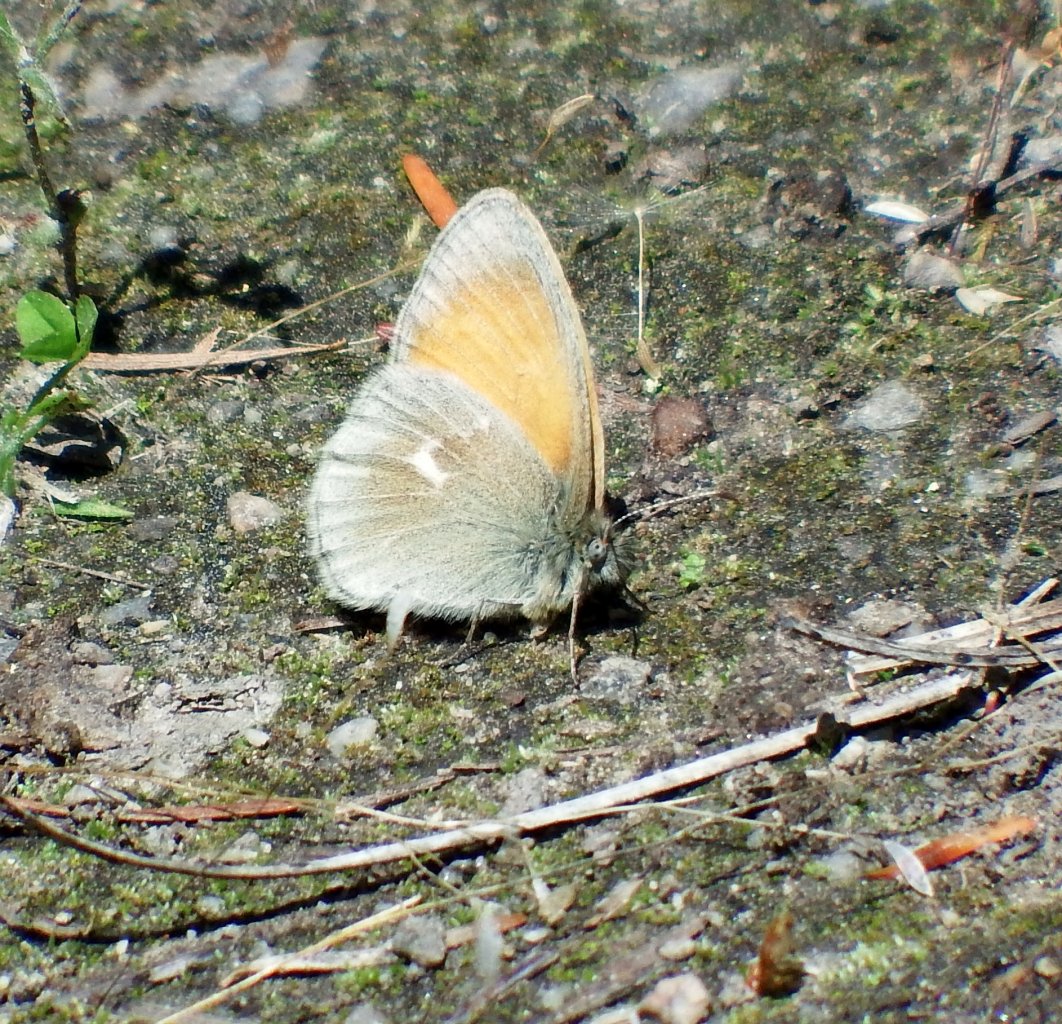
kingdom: Animalia
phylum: Arthropoda
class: Insecta
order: Lepidoptera
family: Nymphalidae
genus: Coenonympha
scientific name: Coenonympha tullia
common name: Large Heath
